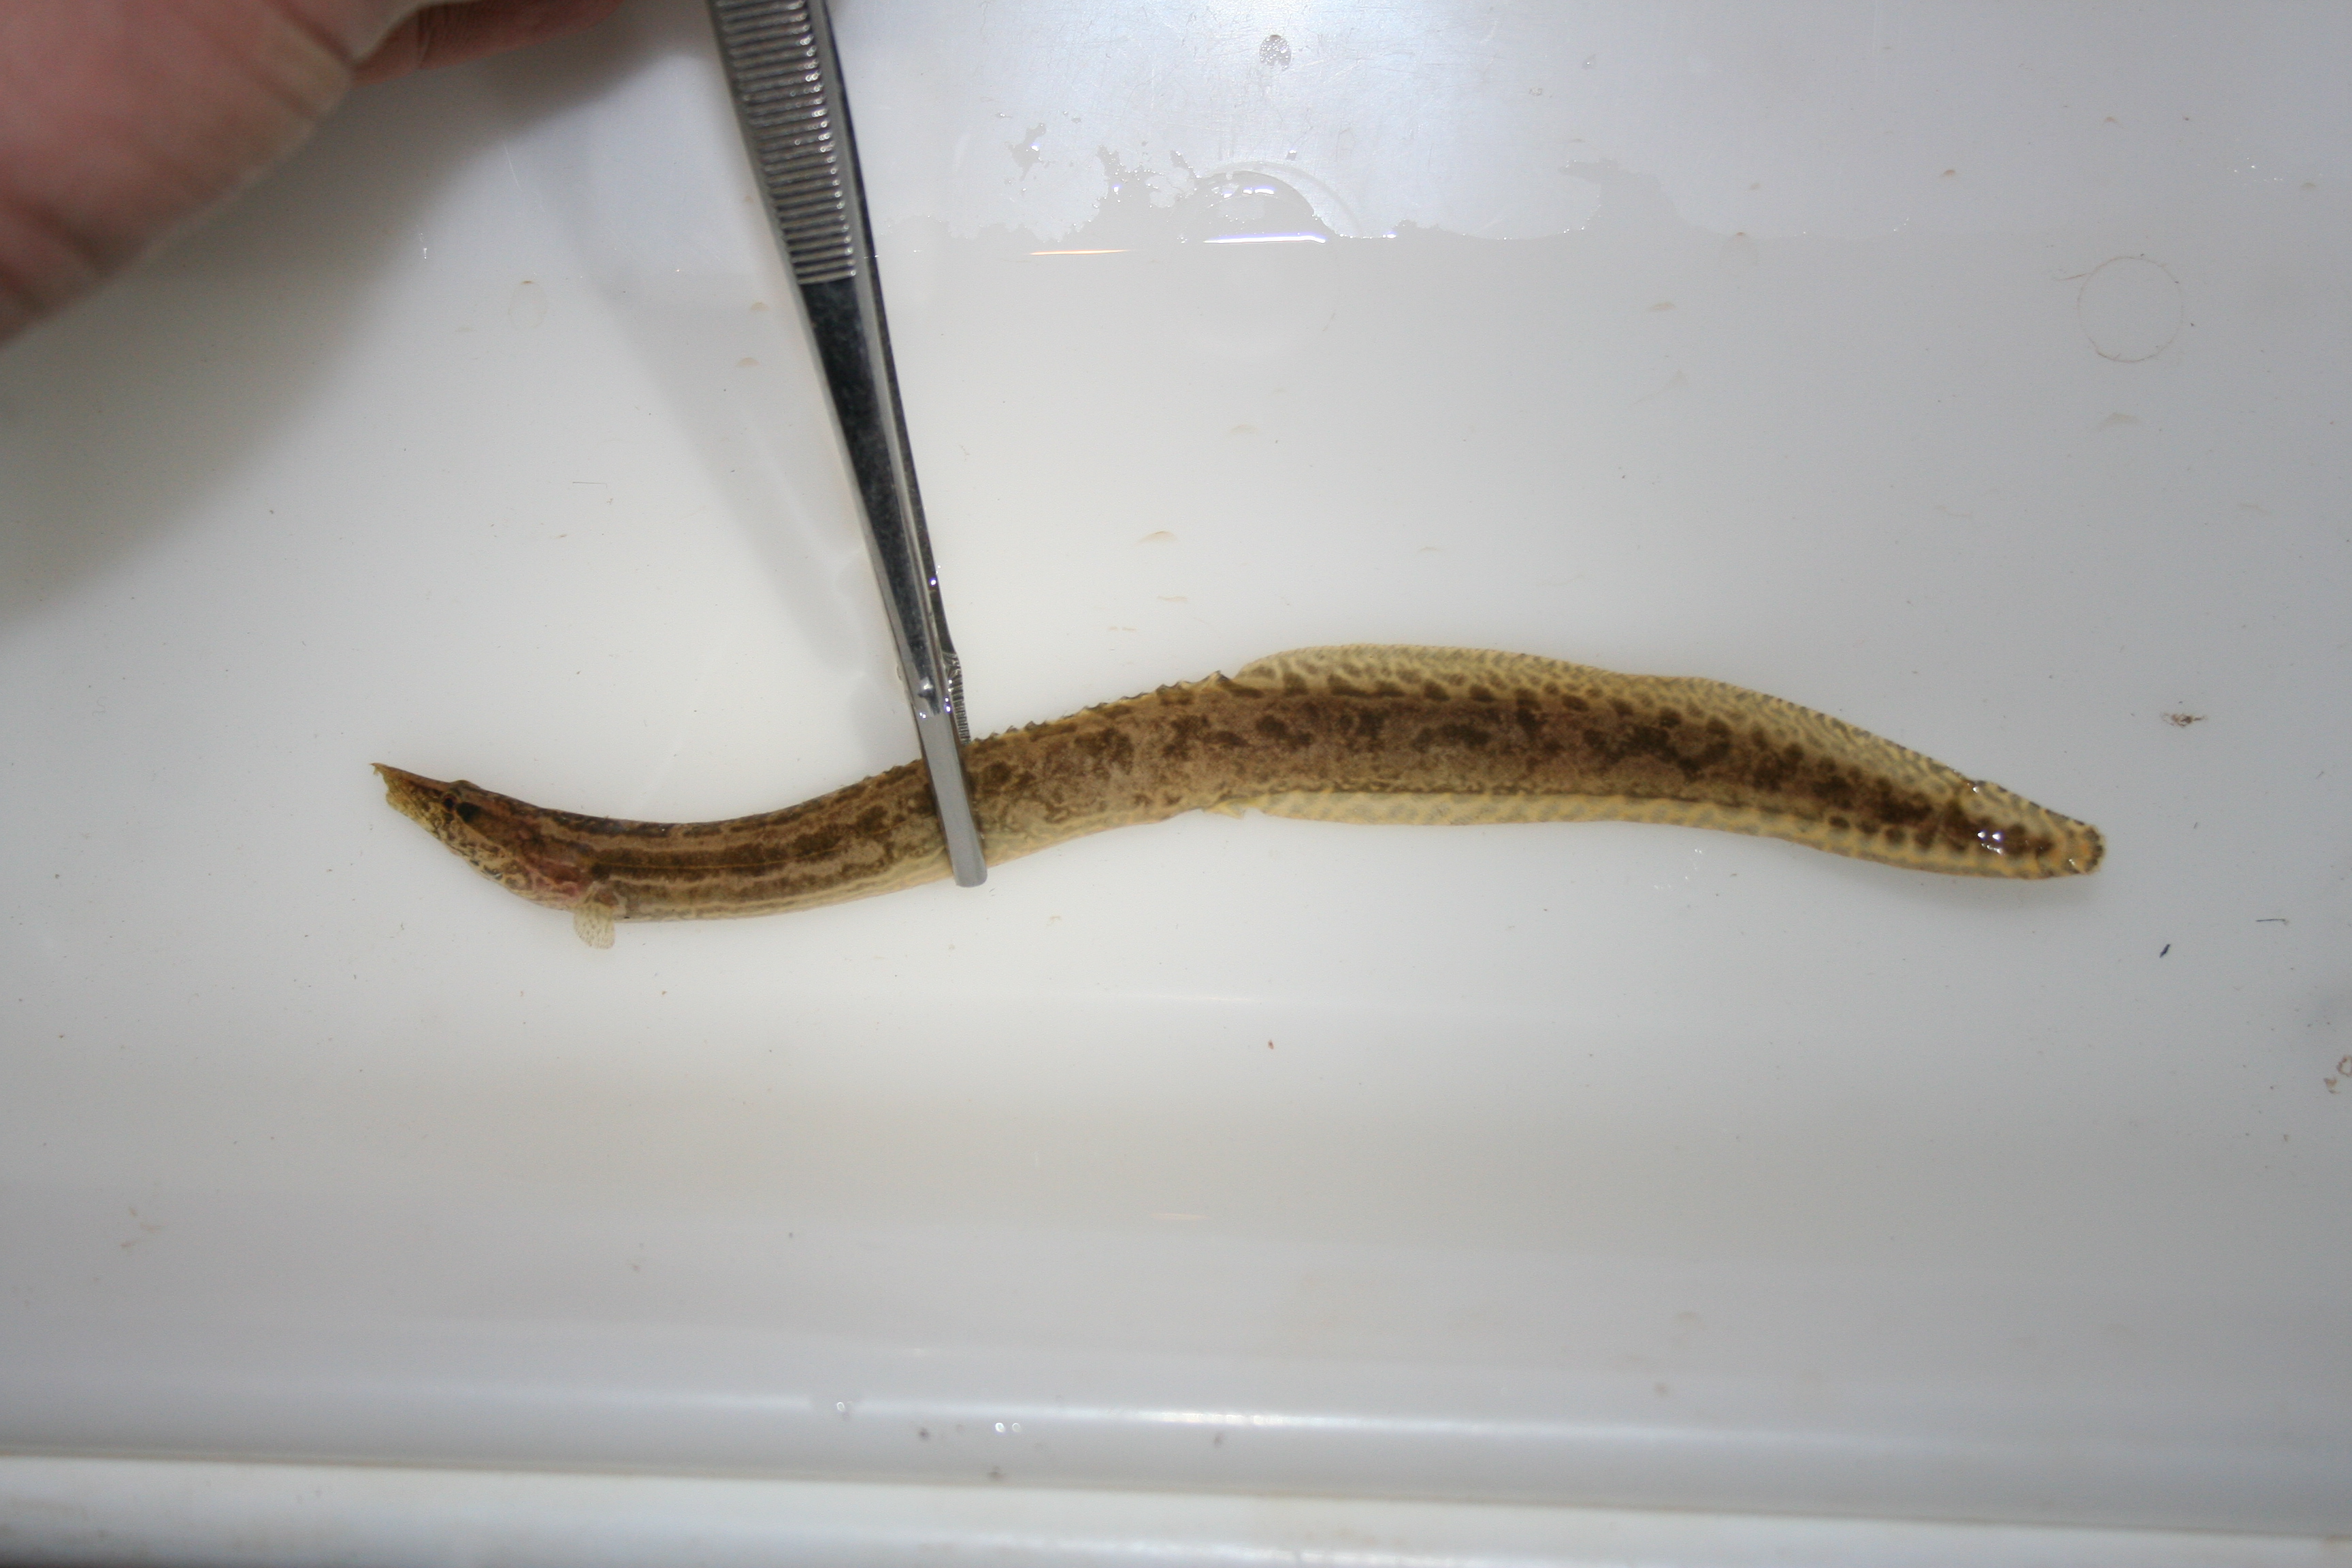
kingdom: Animalia
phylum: Chordata
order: Synbranchiformes
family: Mastacembelidae
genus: Mastacembelus
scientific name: Mastacembelus ansorgii
